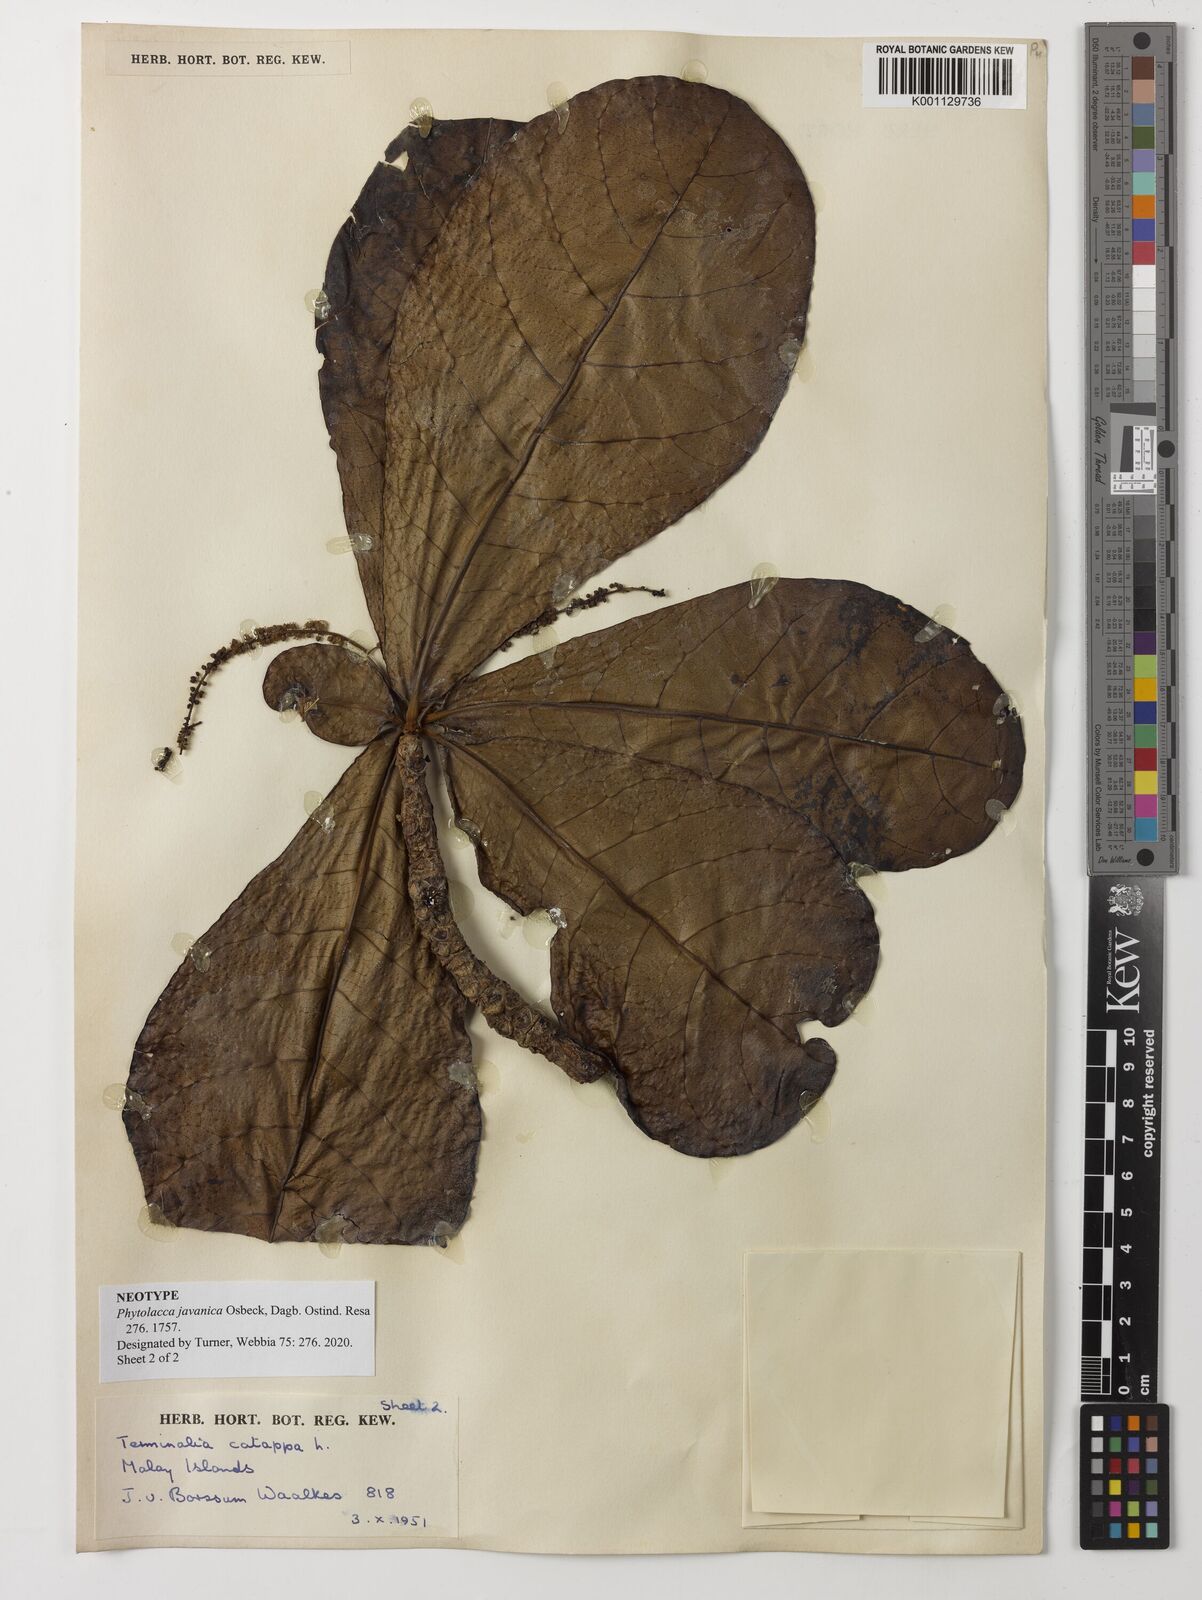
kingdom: Plantae
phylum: Tracheophyta
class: Magnoliopsida
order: Myrtales
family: Combretaceae
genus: Terminalia
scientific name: Terminalia catappa
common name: Tropical almond
